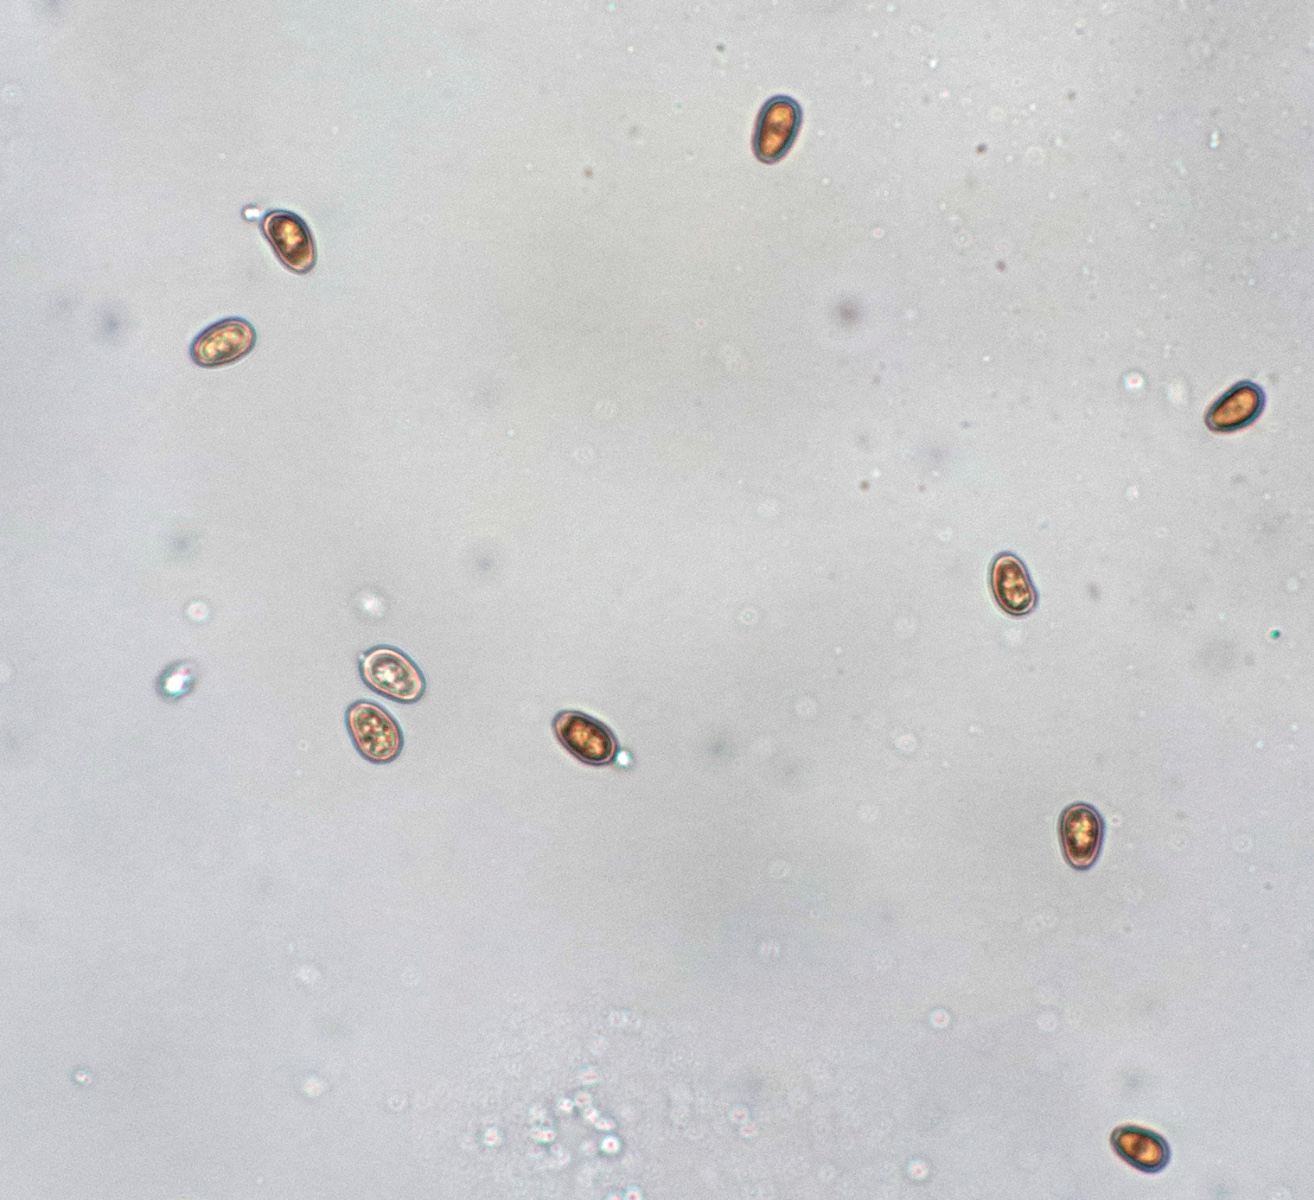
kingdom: Fungi
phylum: Basidiomycota
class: Agaricomycetes
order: Agaricales
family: Psathyrellaceae
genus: Psathyrella
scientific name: Psathyrella senex
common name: brunøjet mørkhat
